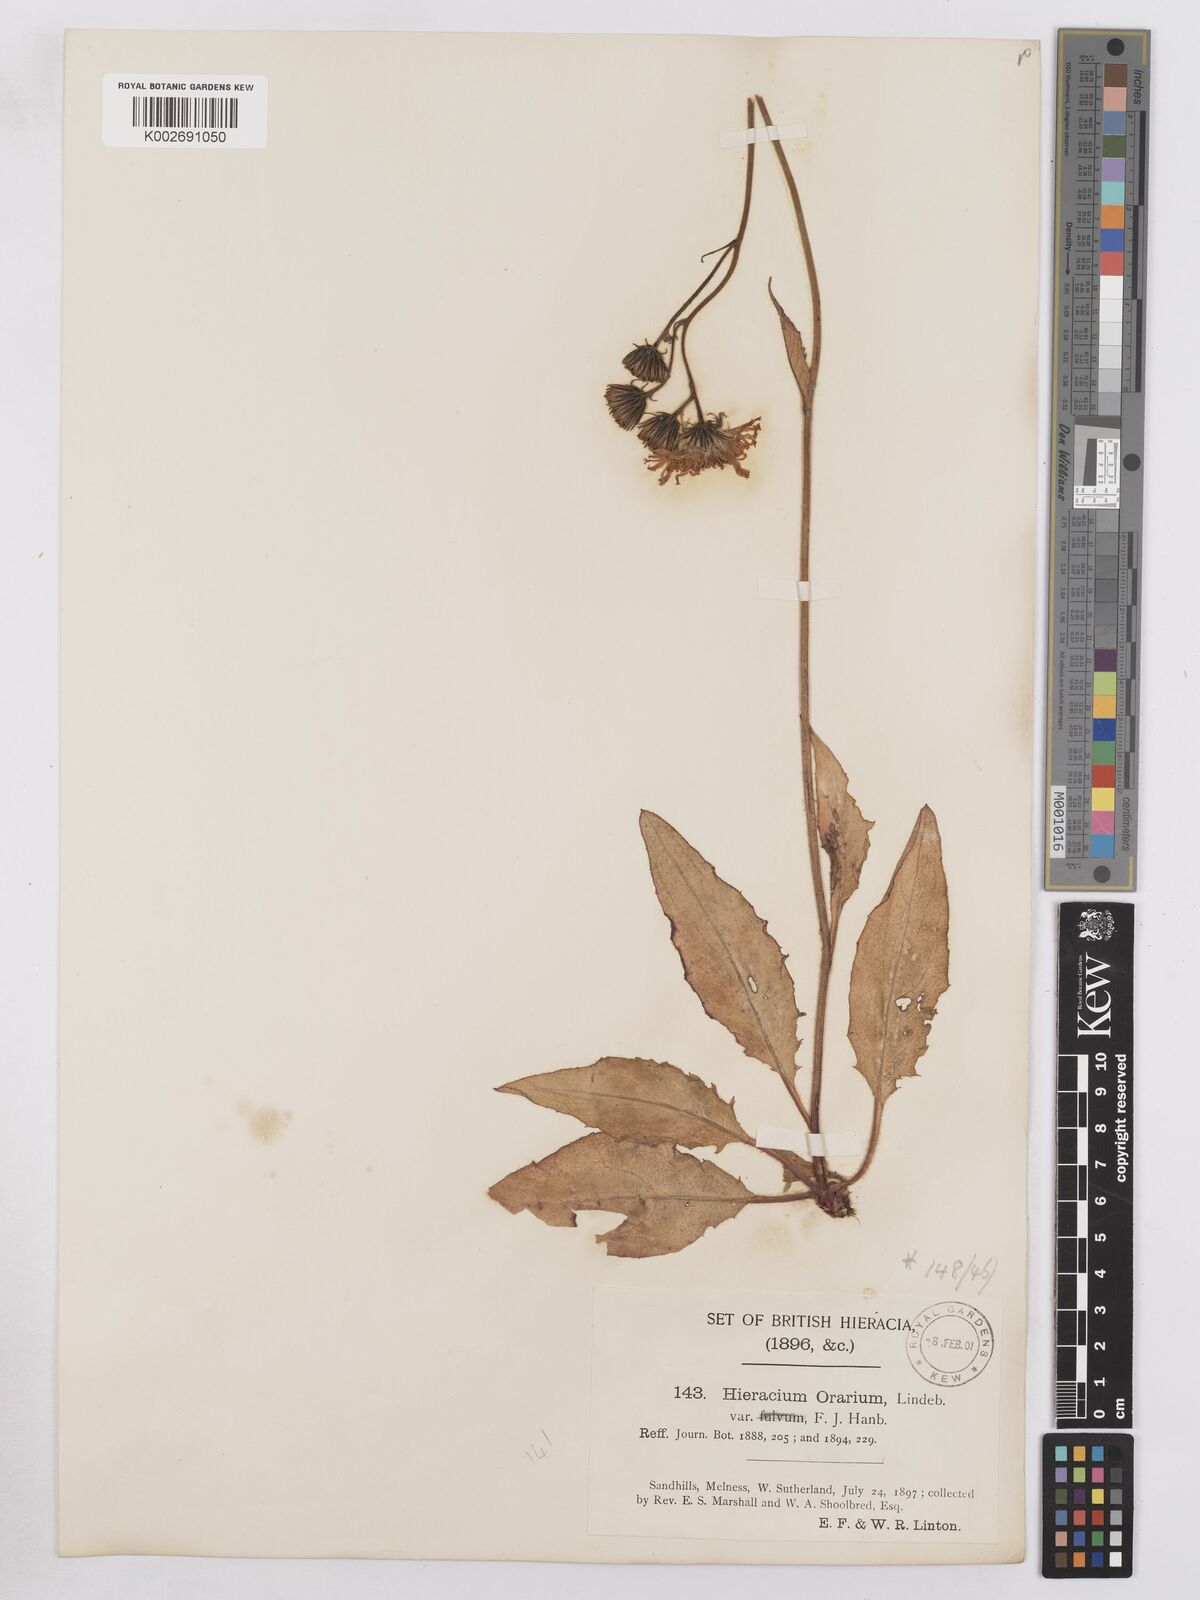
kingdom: Plantae
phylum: Tracheophyta
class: Magnoliopsida
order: Asterales
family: Asteraceae
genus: Hieracium
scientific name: Hieracium farrense
